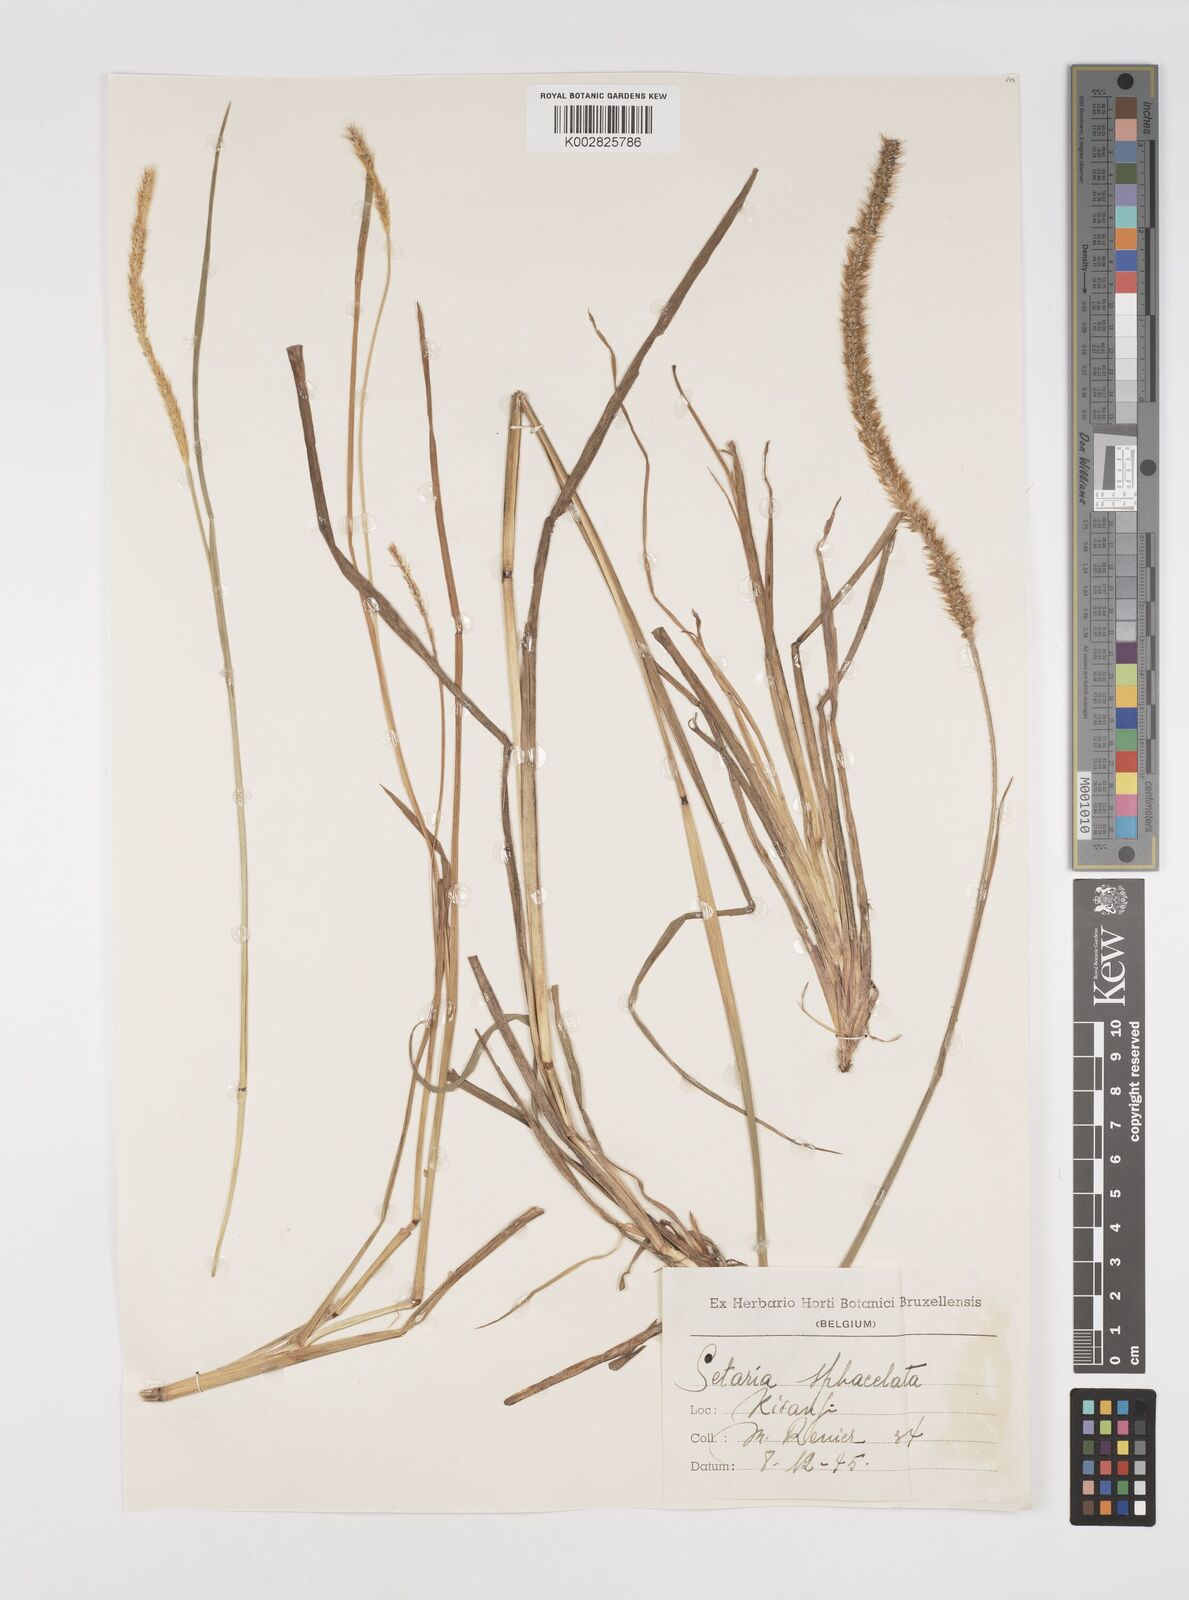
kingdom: Plantae
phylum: Tracheophyta
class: Liliopsida
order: Poales
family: Poaceae
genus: Setaria
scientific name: Setaria sphacelata
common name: African bristlegrass
